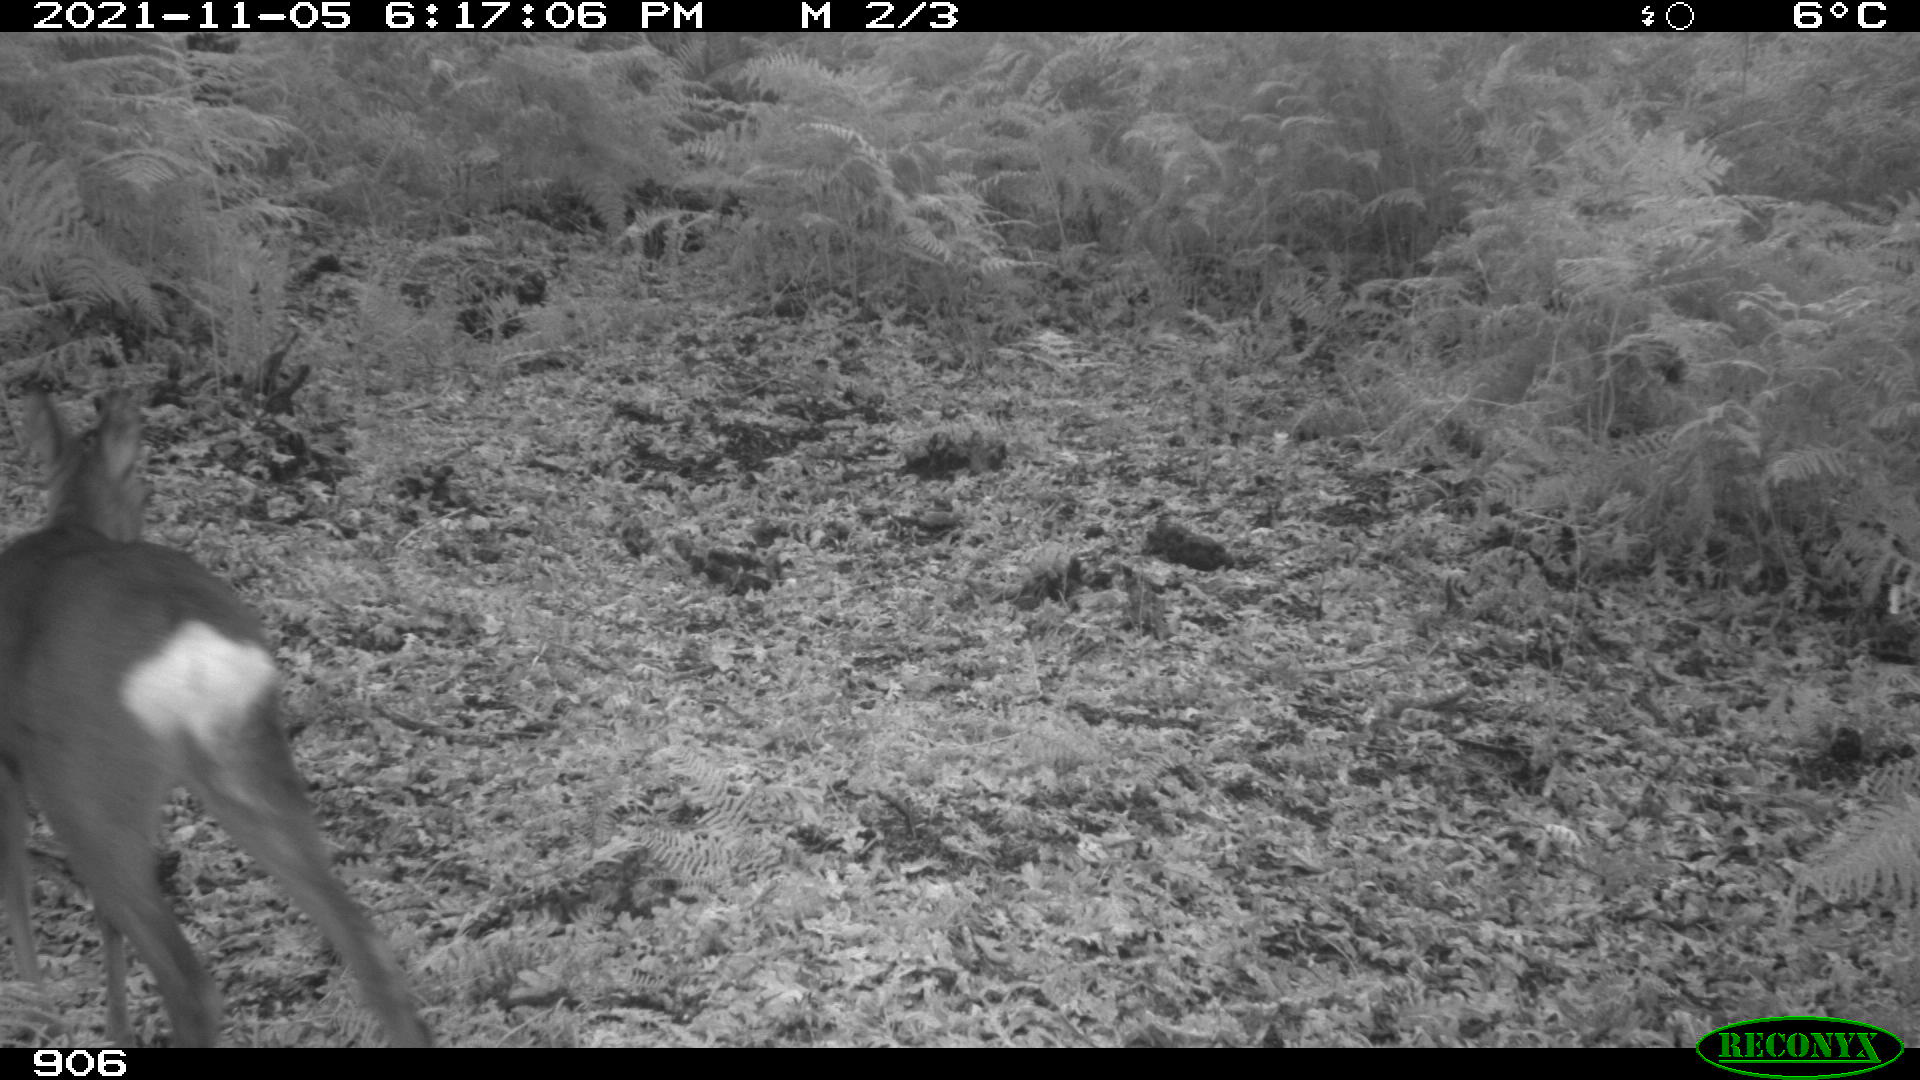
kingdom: Animalia
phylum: Chordata
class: Mammalia
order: Artiodactyla
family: Cervidae
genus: Capreolus
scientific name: Capreolus capreolus
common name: Western roe deer
